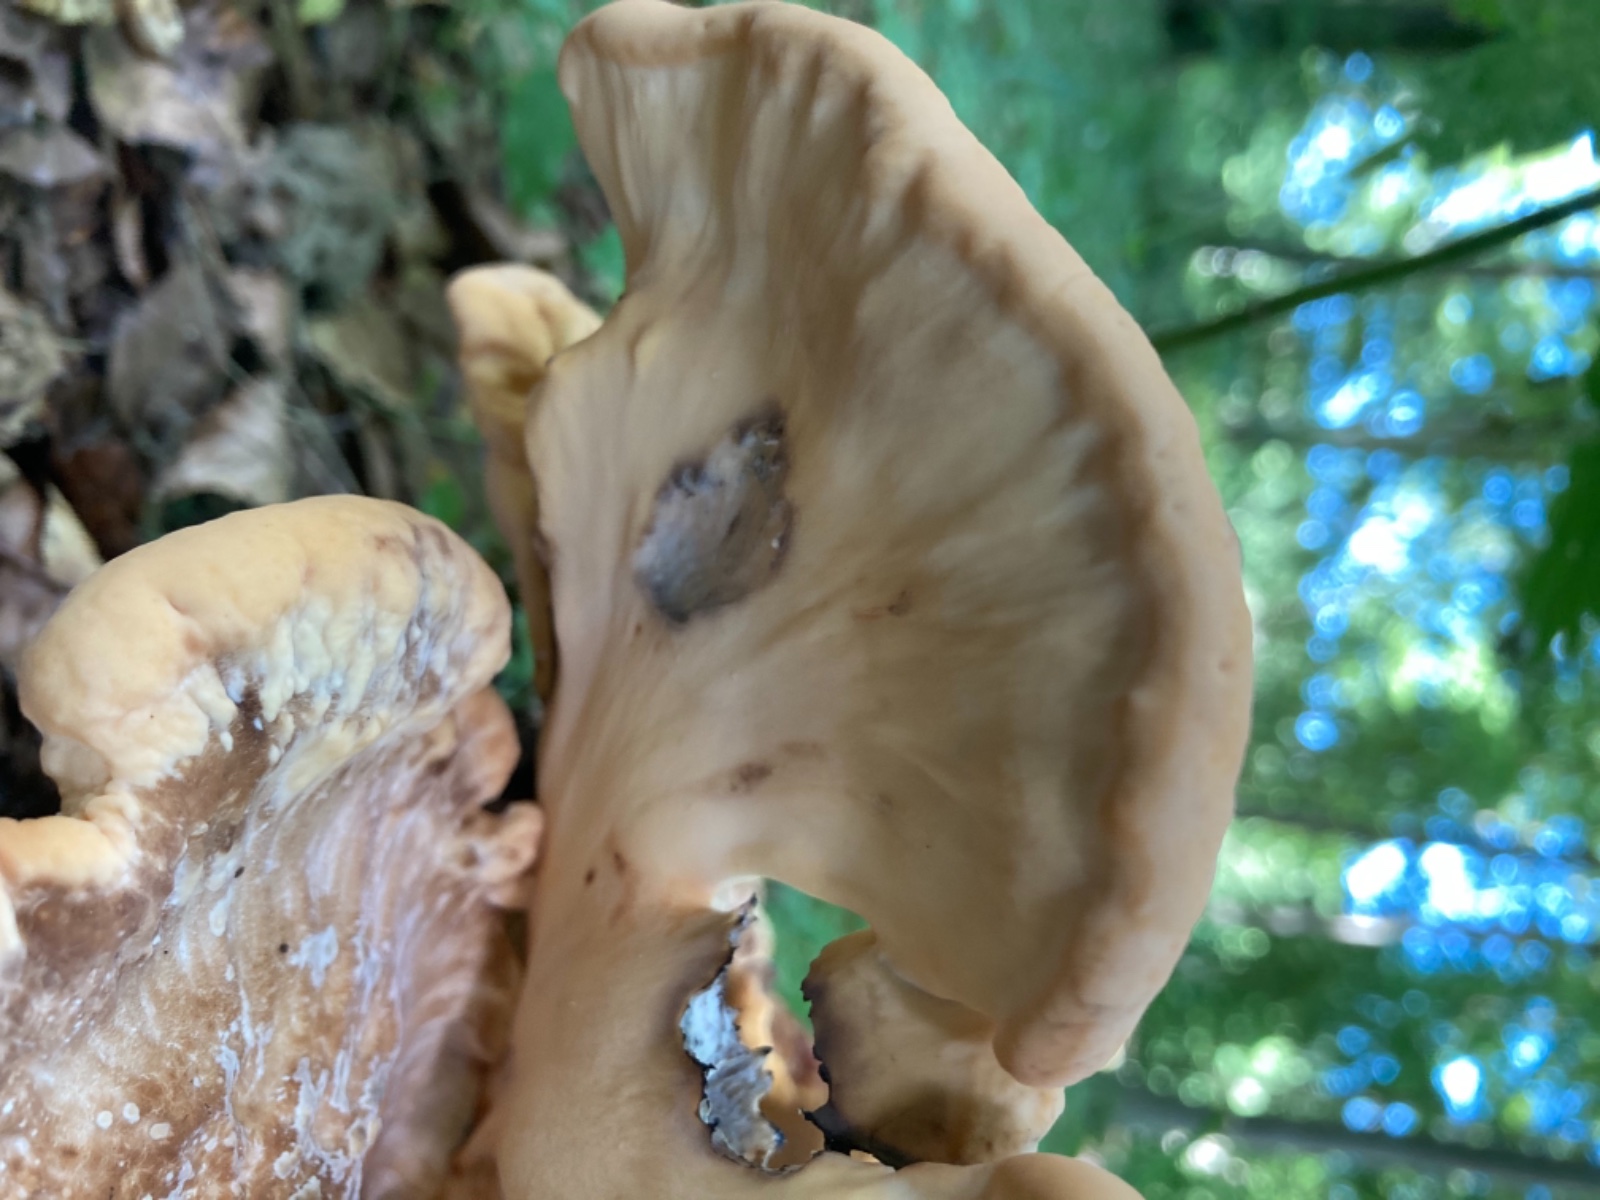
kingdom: Fungi
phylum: Basidiomycota
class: Agaricomycetes
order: Polyporales
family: Meripilaceae
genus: Meripilus
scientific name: Meripilus giganteus
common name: kæmpeporesvamp
